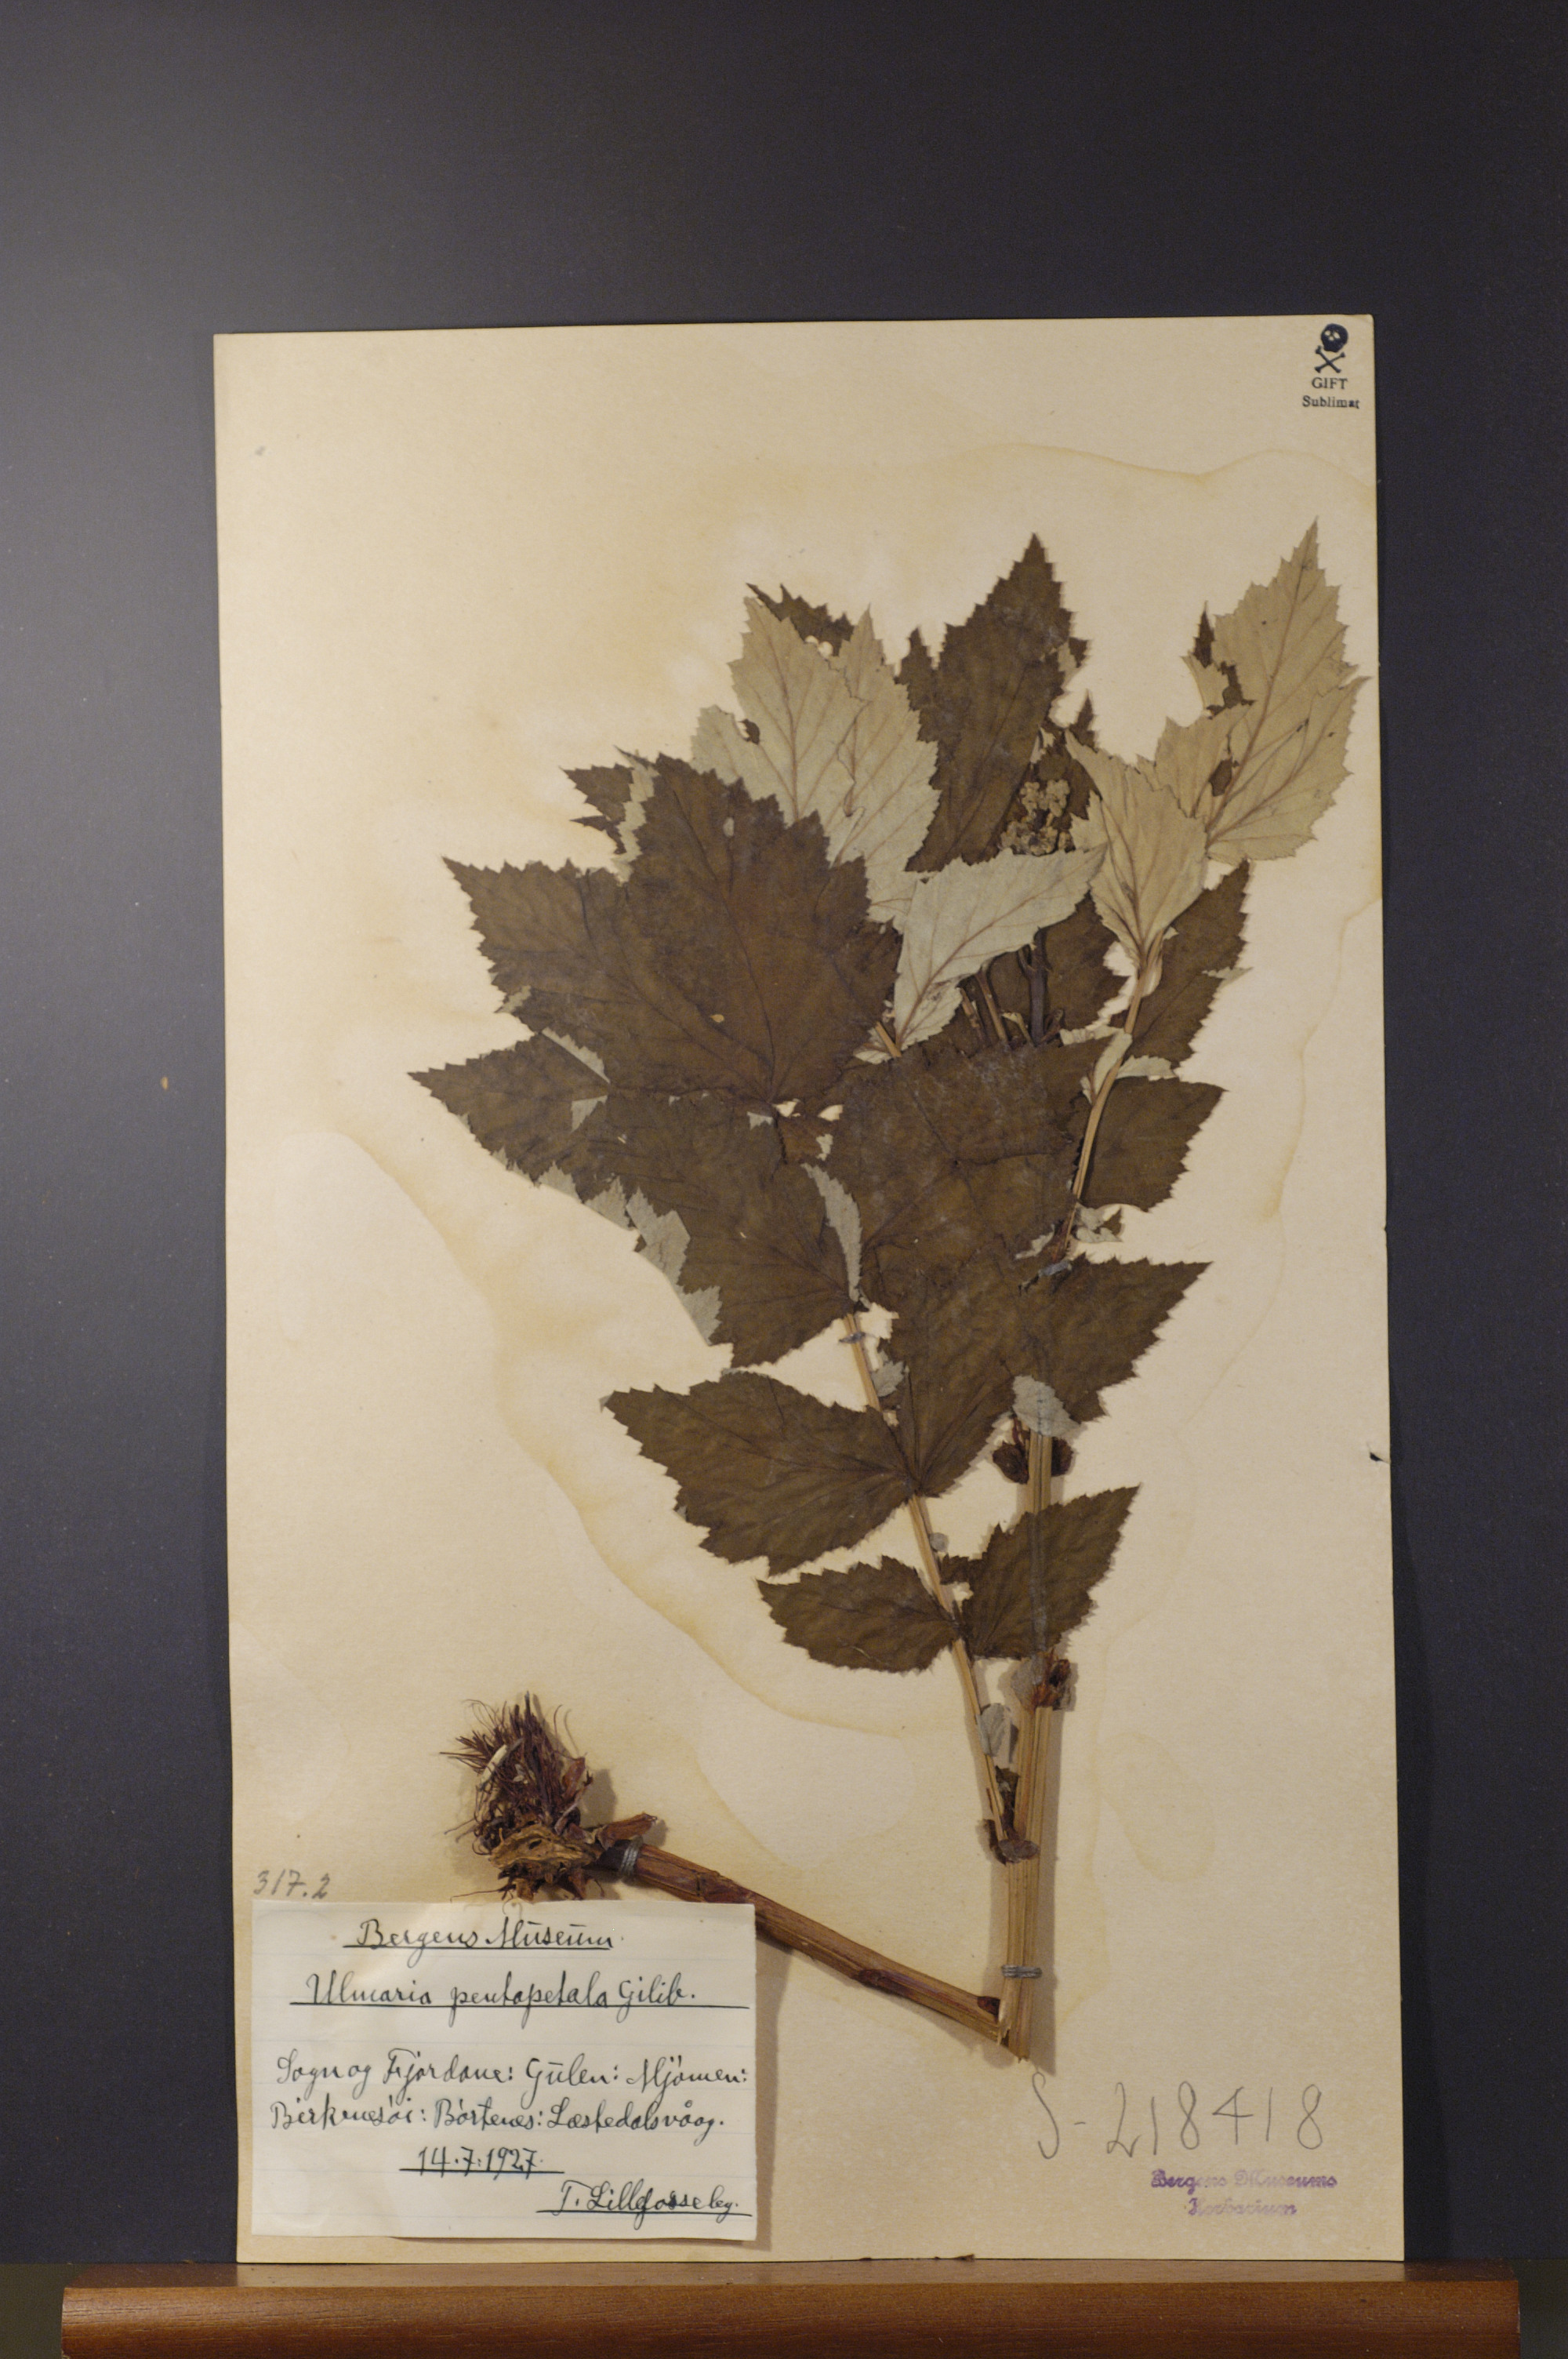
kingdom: Plantae
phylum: Tracheophyta
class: Magnoliopsida
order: Rosales
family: Rosaceae
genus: Filipendula
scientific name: Filipendula ulmaria
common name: Meadowsweet
